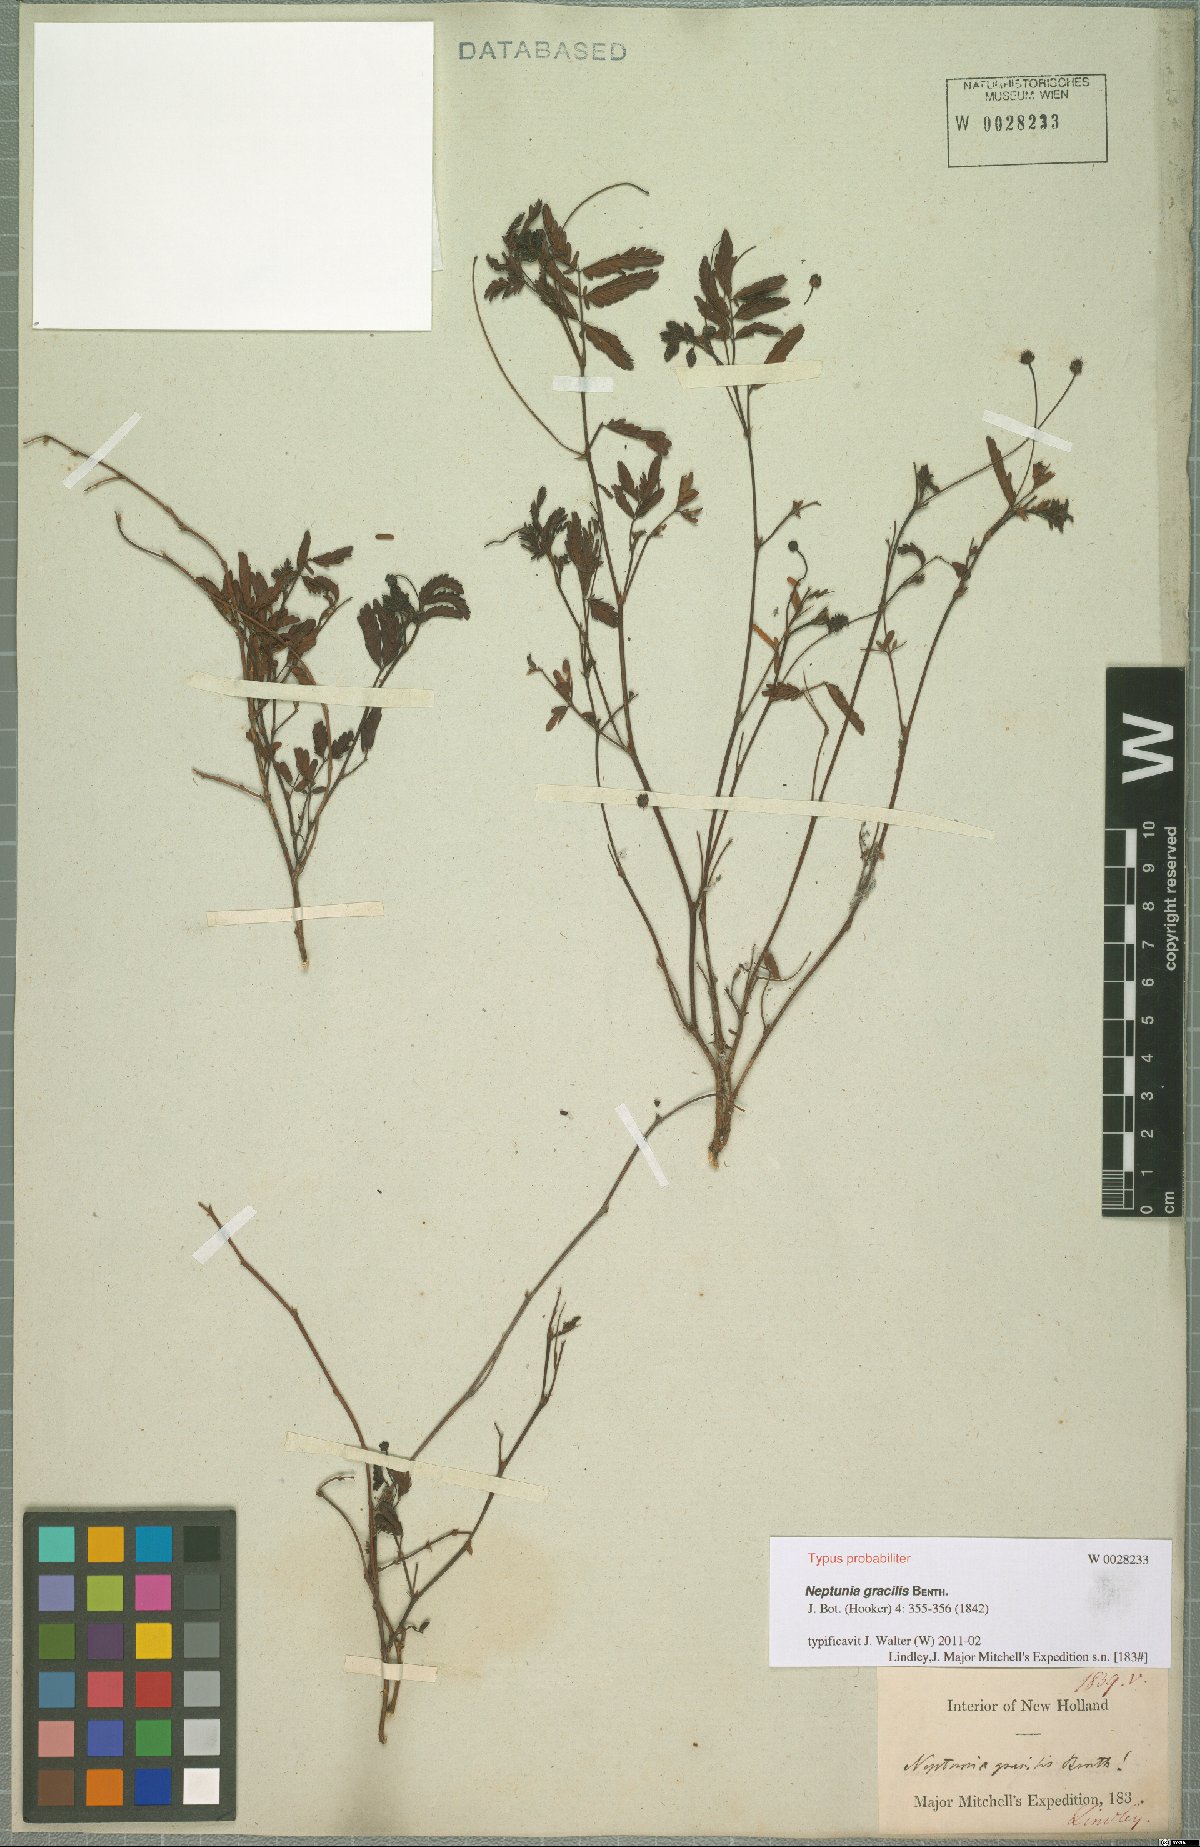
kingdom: Plantae
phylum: Tracheophyta
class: Magnoliopsida
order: Fabales
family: Fabaceae
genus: Neptunia
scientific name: Neptunia gracilis
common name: Sensitive-plant
